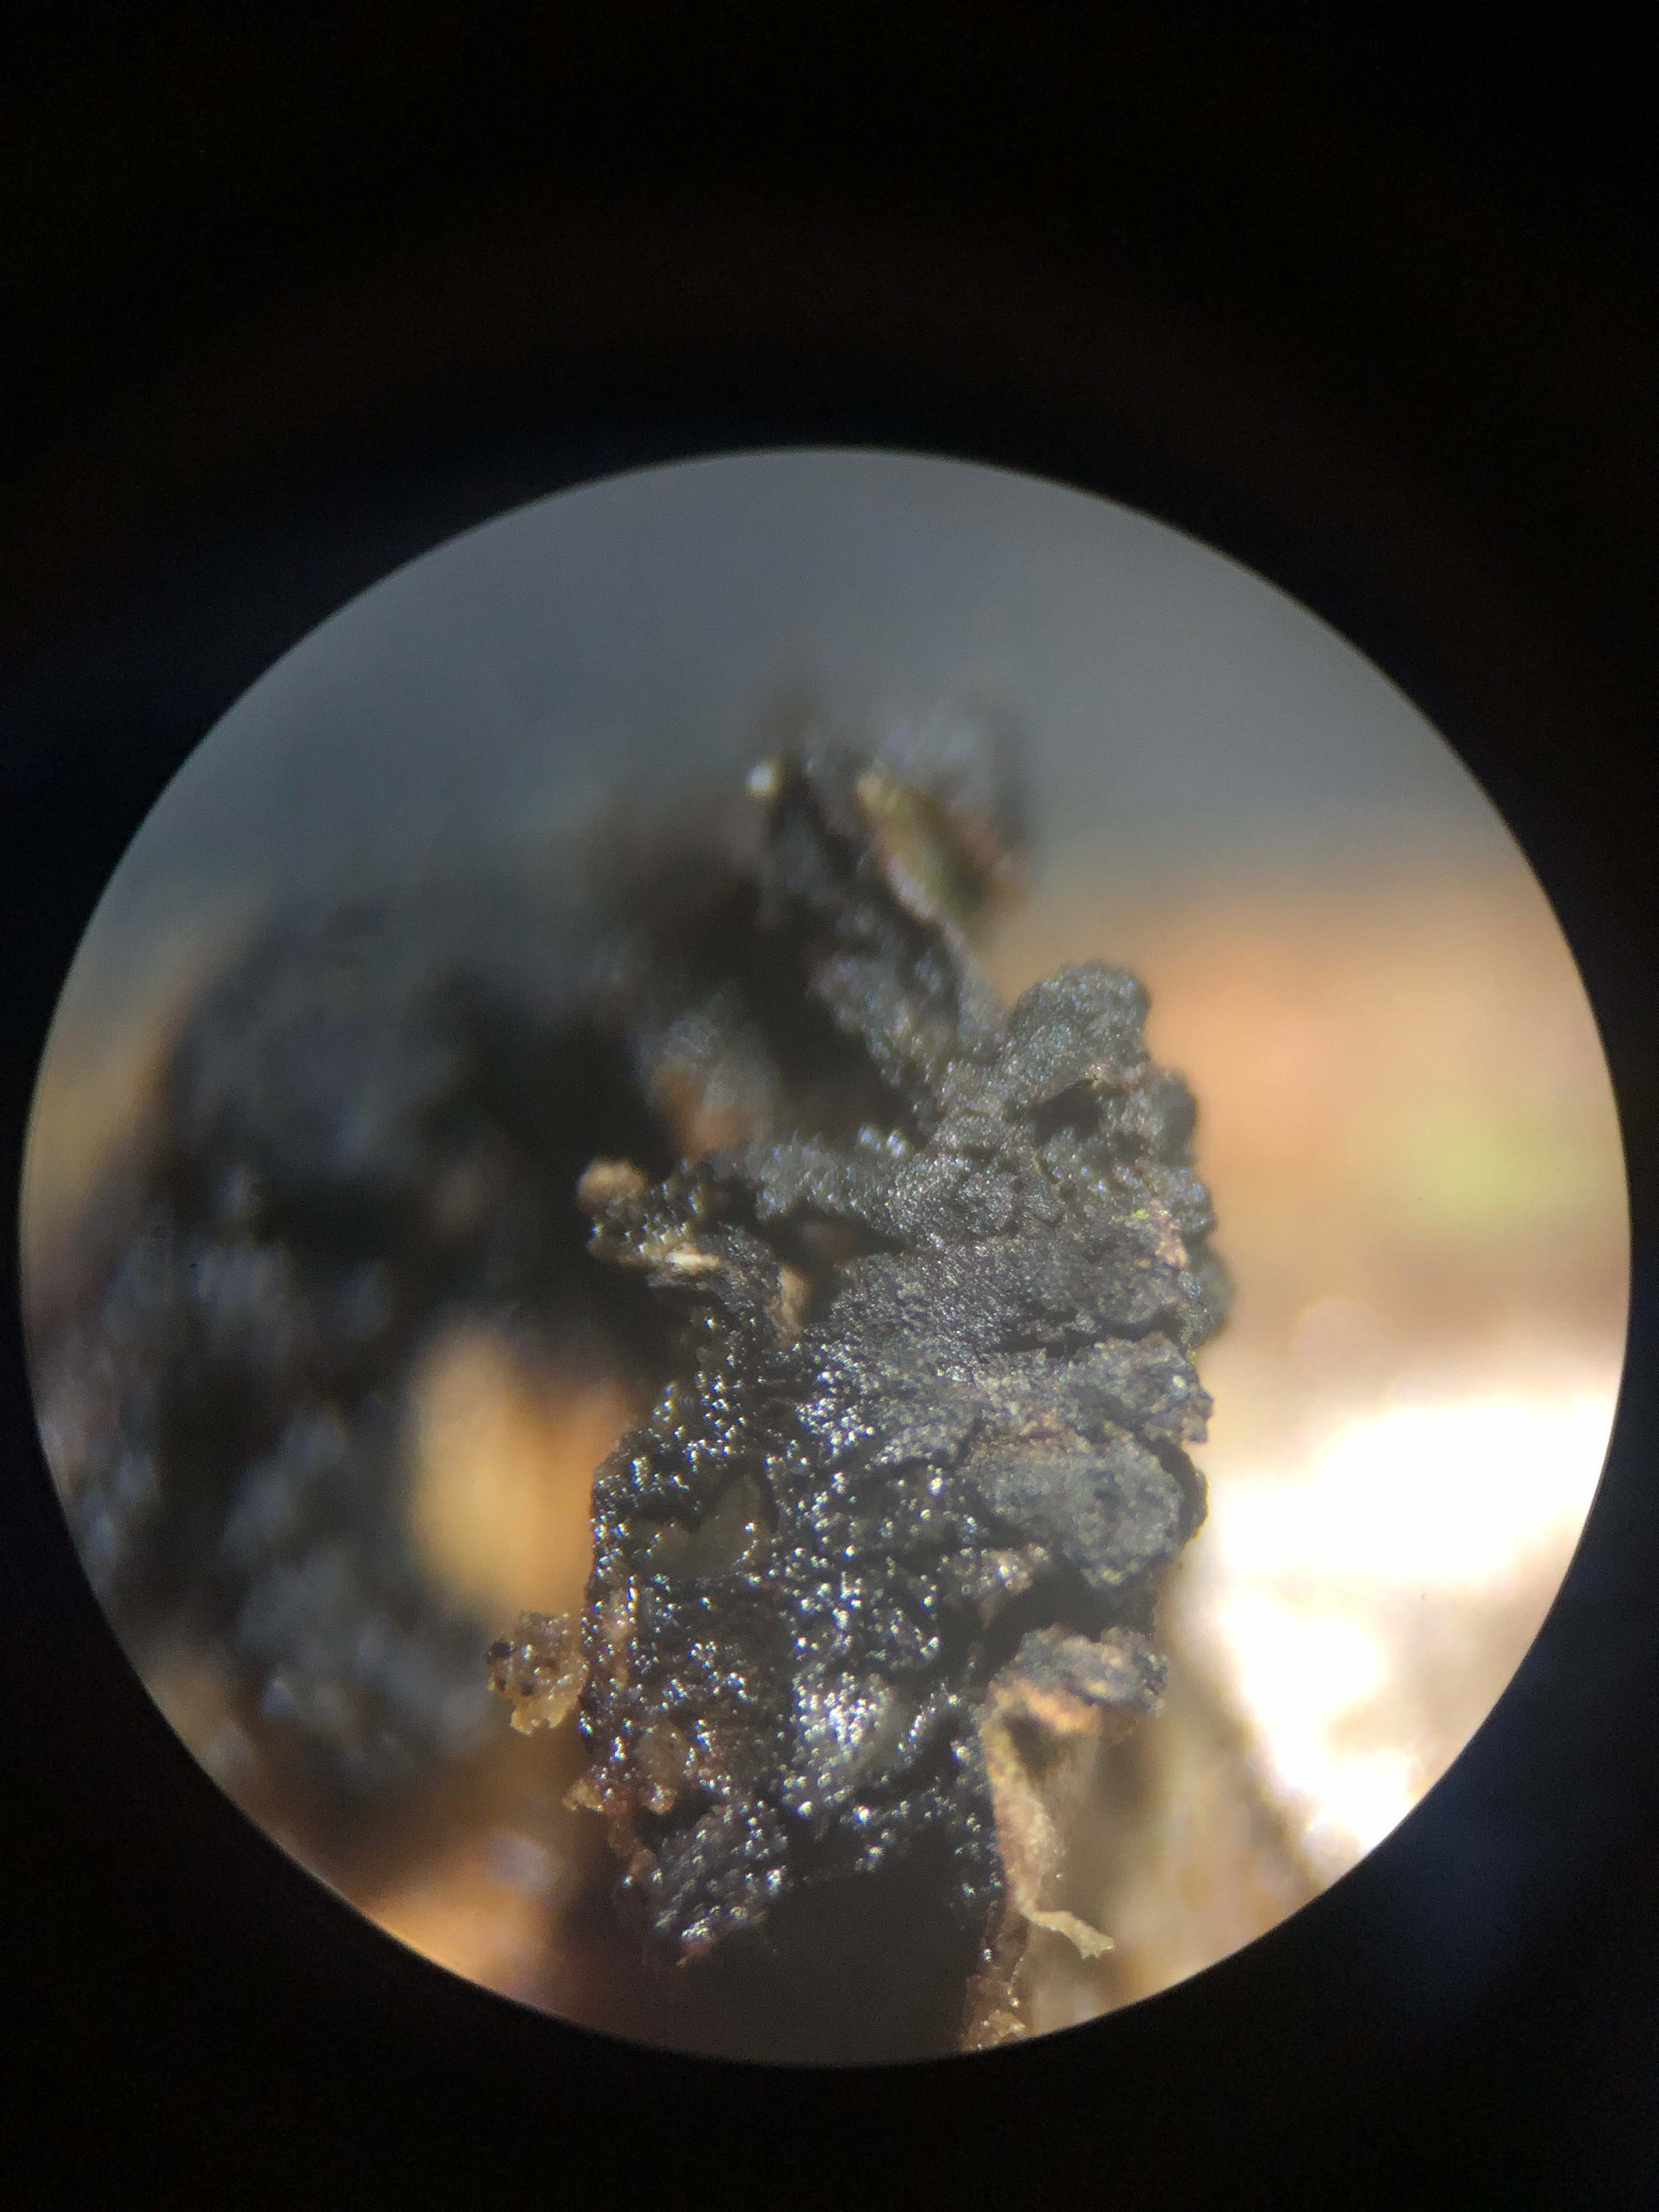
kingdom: Fungi
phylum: Ascomycota
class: Sordariomycetes
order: Xylariales
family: Diatrypaceae
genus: Eutypella
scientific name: Eutypella sorbi
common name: rønne-kulskorpe
